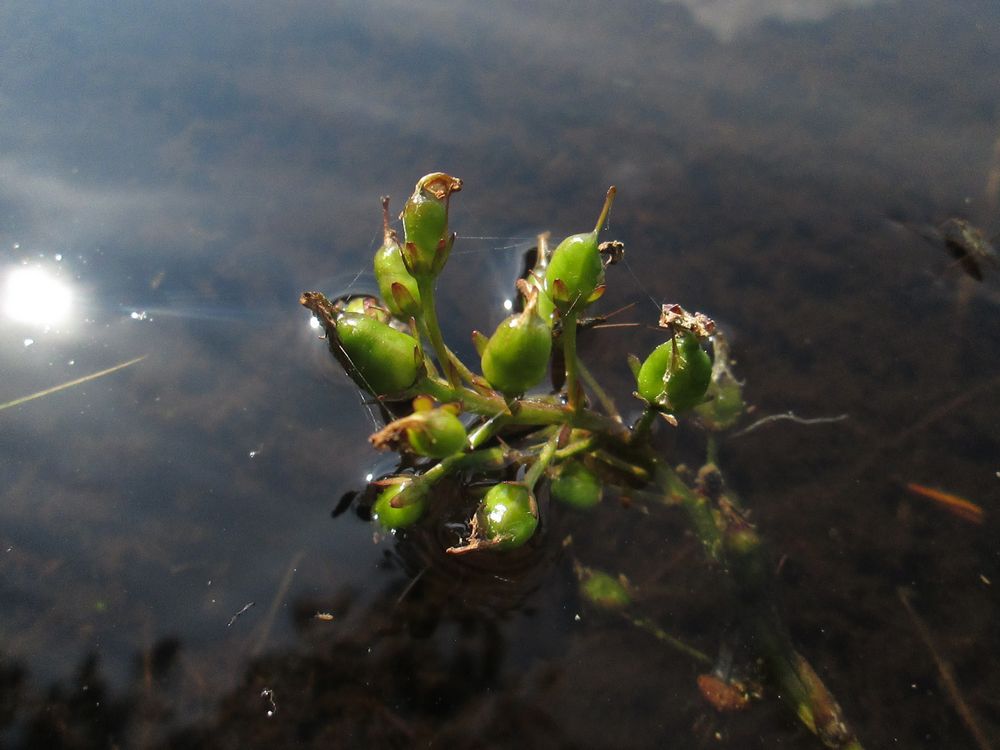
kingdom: Plantae
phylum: Tracheophyta
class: Magnoliopsida
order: Asterales
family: Menyanthaceae
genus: Menyanthes
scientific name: Menyanthes trifoliata
